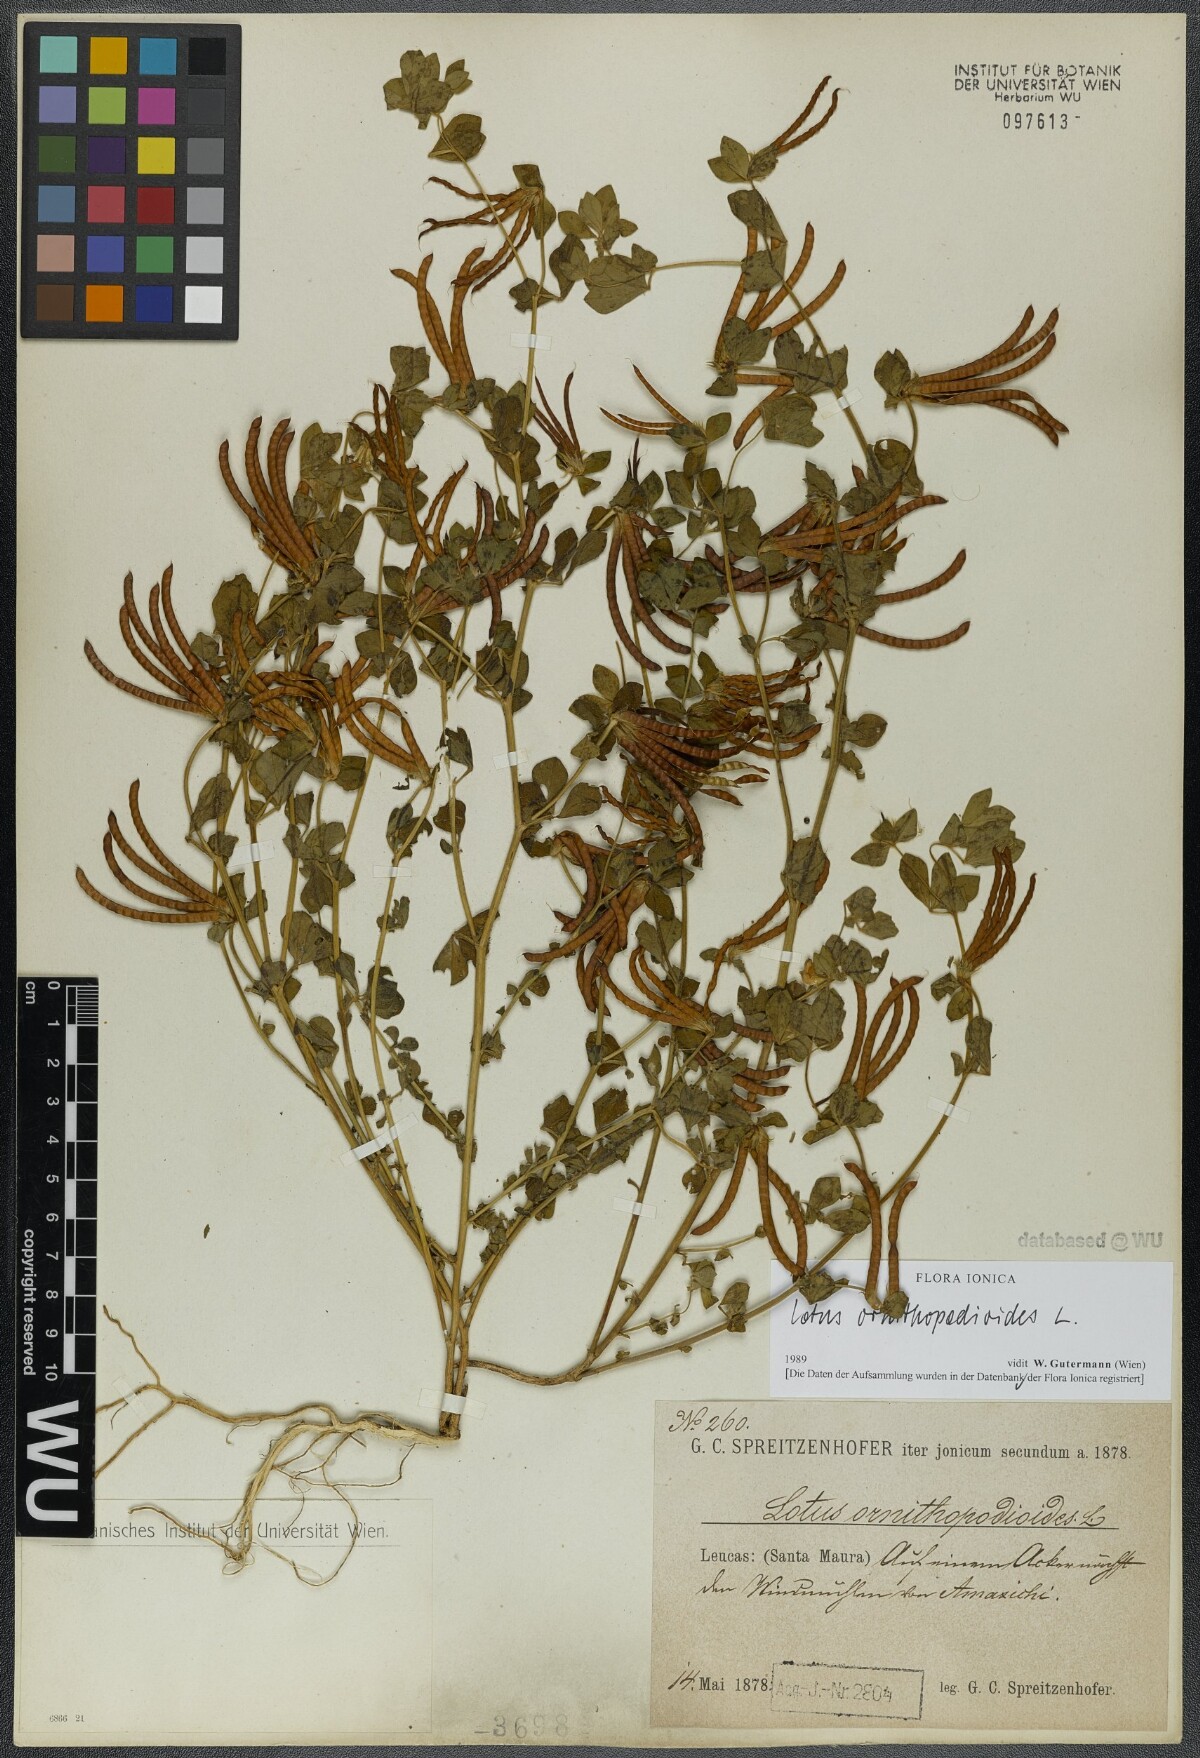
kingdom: Plantae
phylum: Tracheophyta
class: Magnoliopsida
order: Fabales
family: Fabaceae
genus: Lotus
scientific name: Lotus ornithopodioides
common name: Southern bird's-foot trefoil
